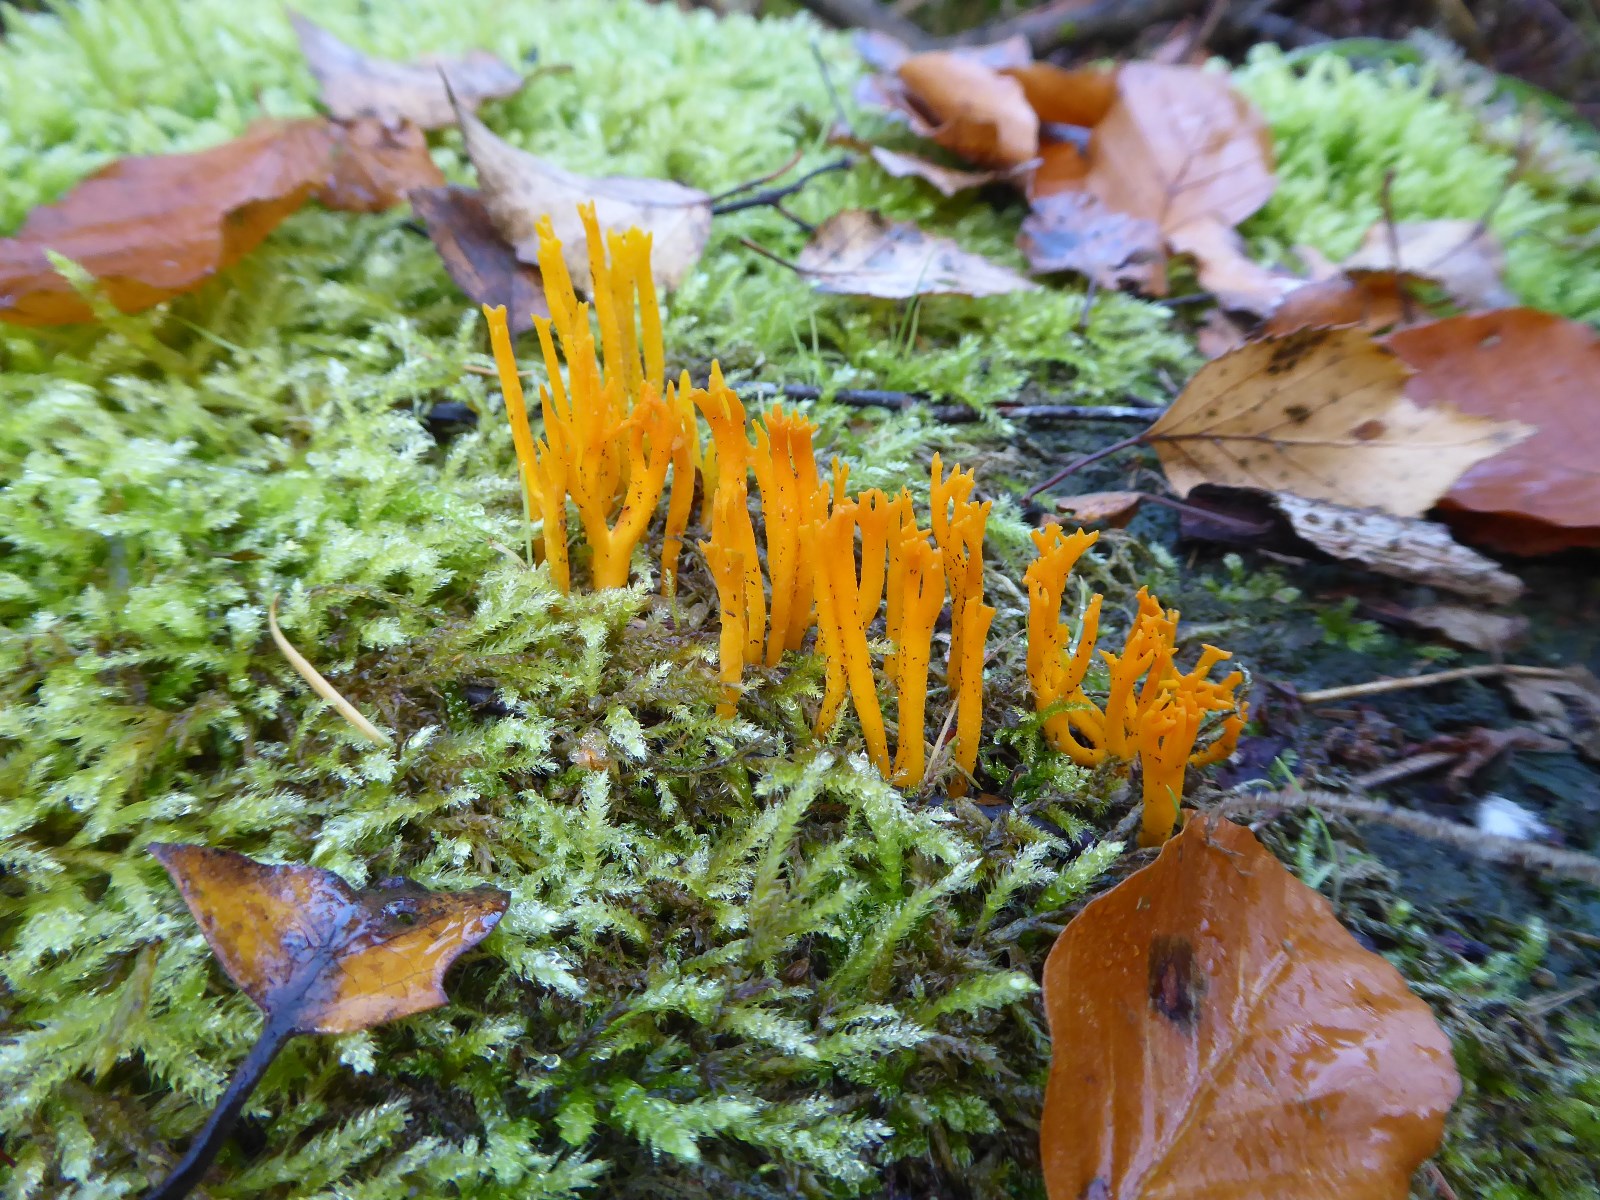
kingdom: Fungi
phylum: Basidiomycota
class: Dacrymycetes
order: Dacrymycetales
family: Dacrymycetaceae
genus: Calocera
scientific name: Calocera viscosa
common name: almindelig guldgaffel
